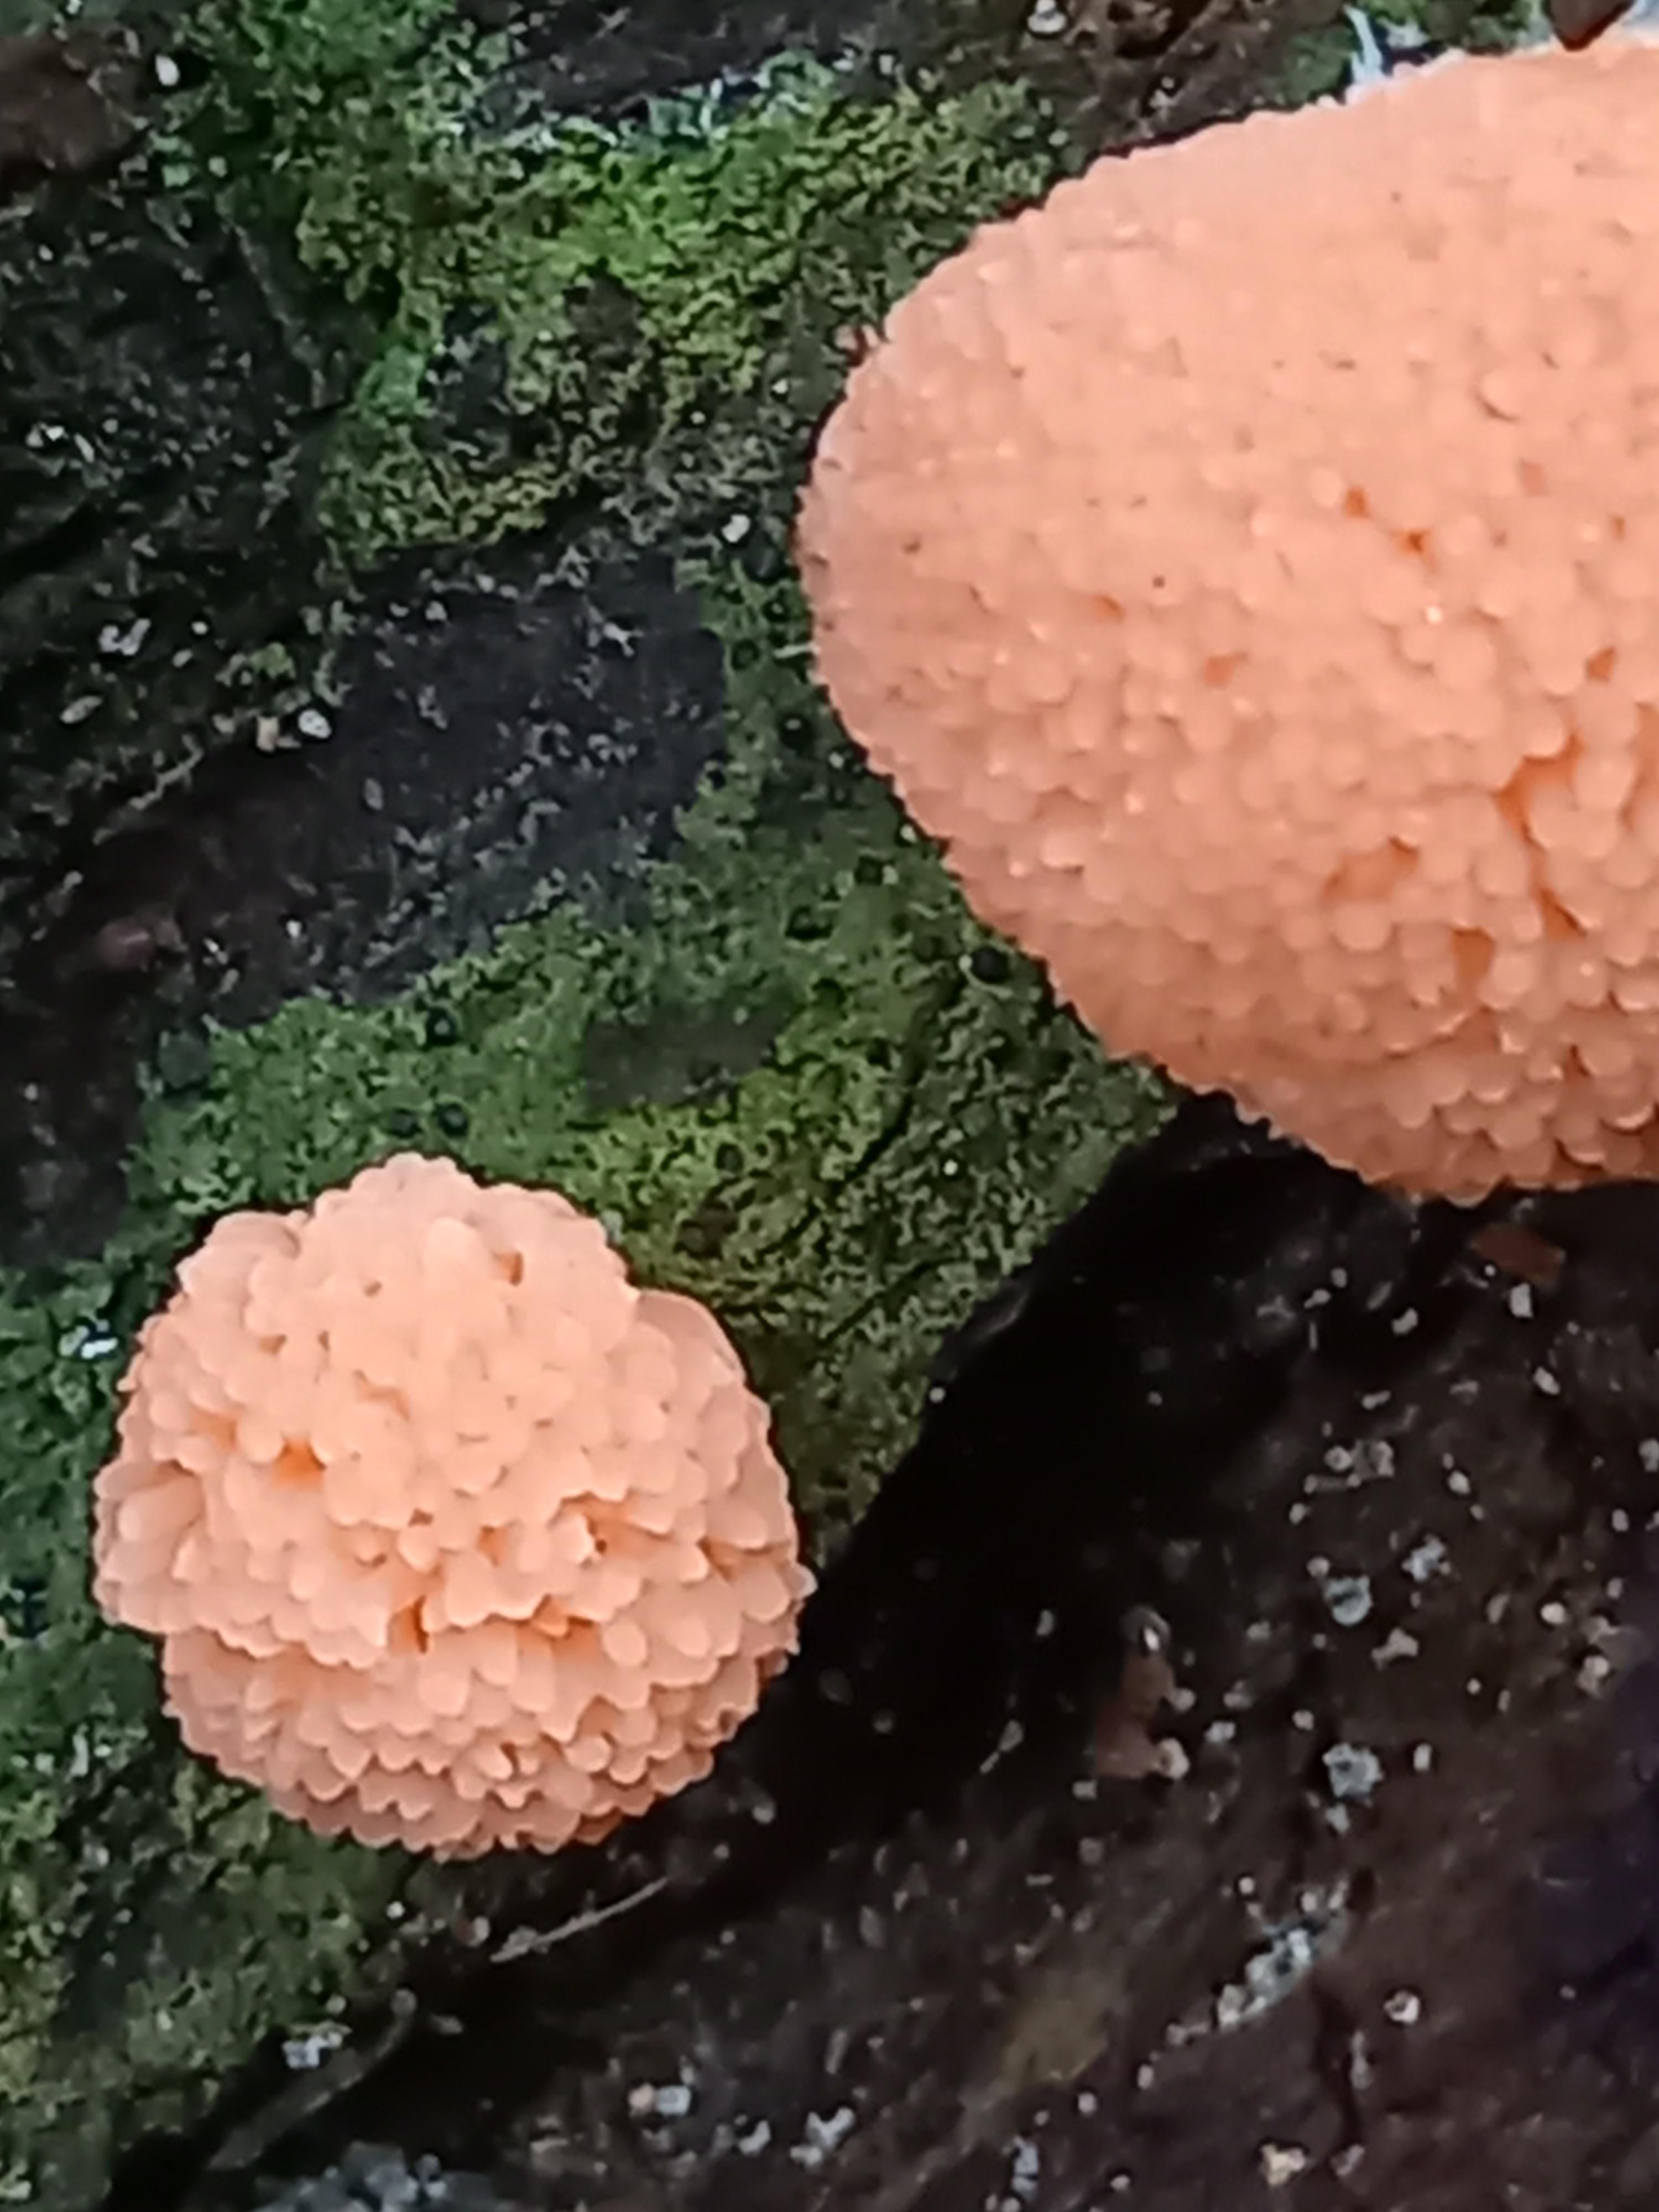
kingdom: Protozoa
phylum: Mycetozoa
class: Myxomycetes
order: Cribrariales
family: Tubiferaceae
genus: Tubifera
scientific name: Tubifera ferruginosa
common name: kanel-støvrør
